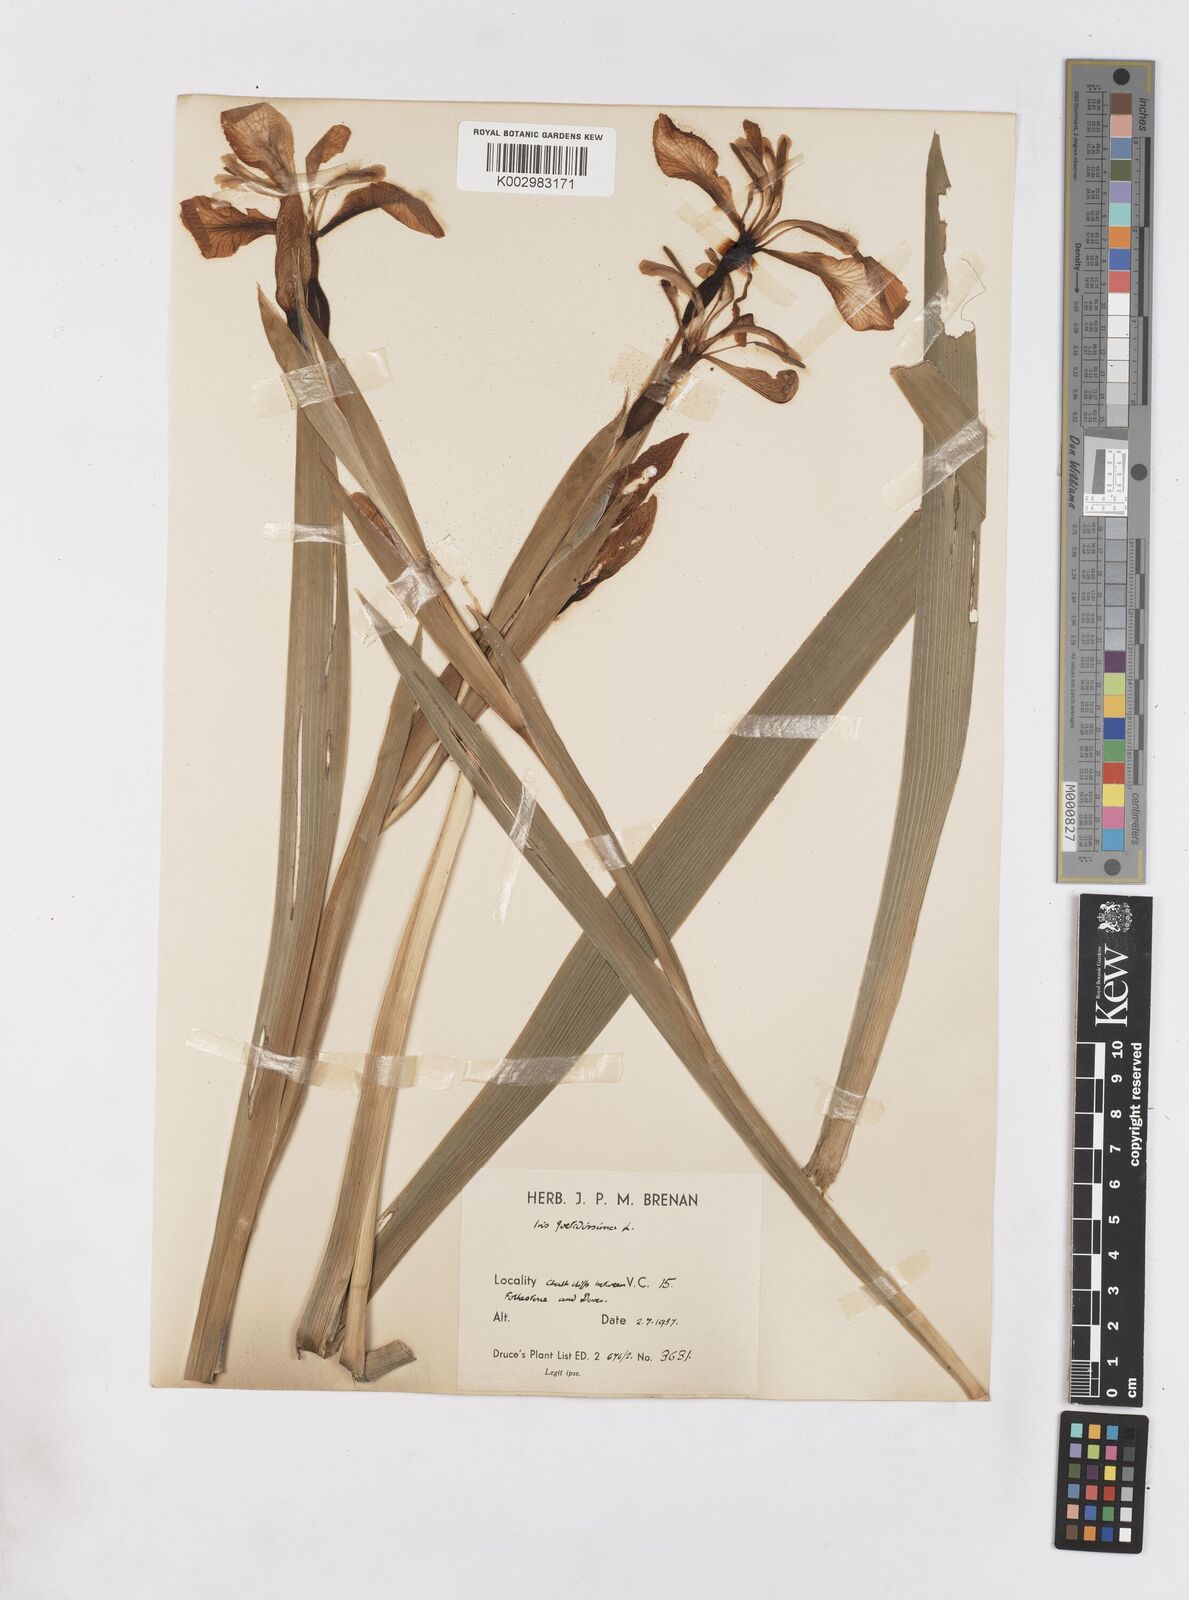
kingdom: Plantae
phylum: Tracheophyta
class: Liliopsida
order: Asparagales
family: Iridaceae
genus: Iris
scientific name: Iris foetidissima
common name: Stinking iris
